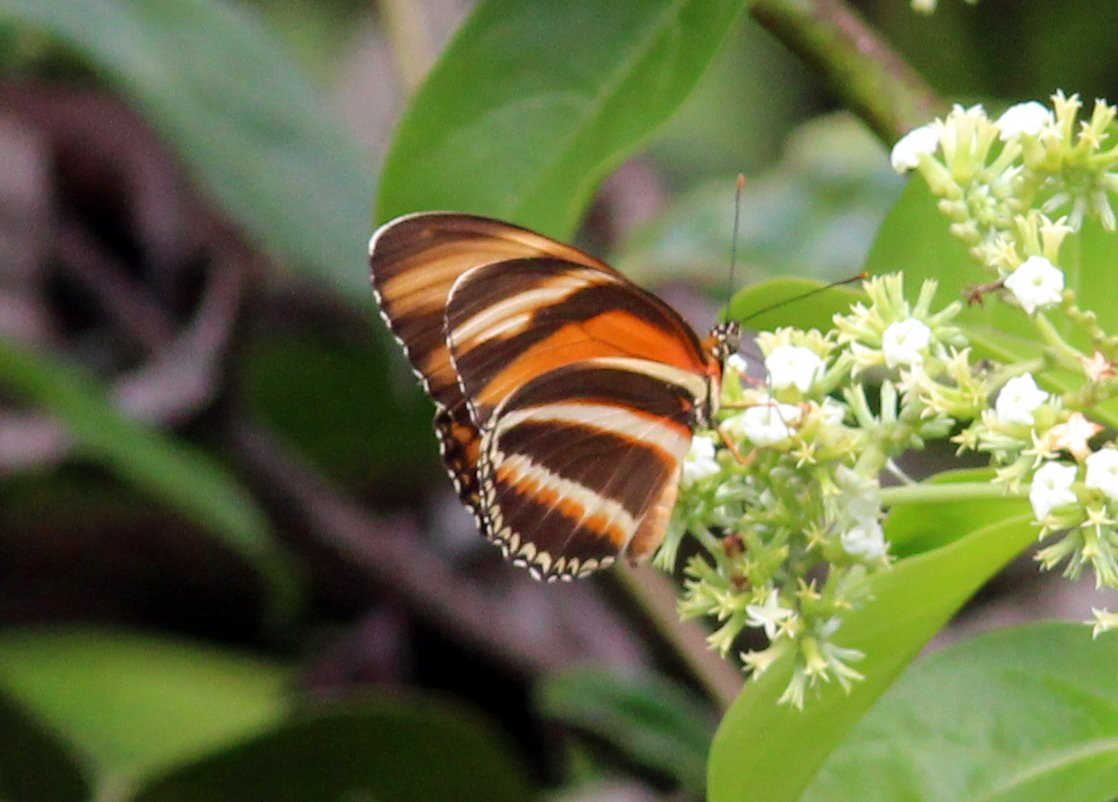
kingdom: Animalia
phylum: Arthropoda
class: Insecta
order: Lepidoptera
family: Nymphalidae
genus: Dryadula
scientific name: Dryadula phaetusa
